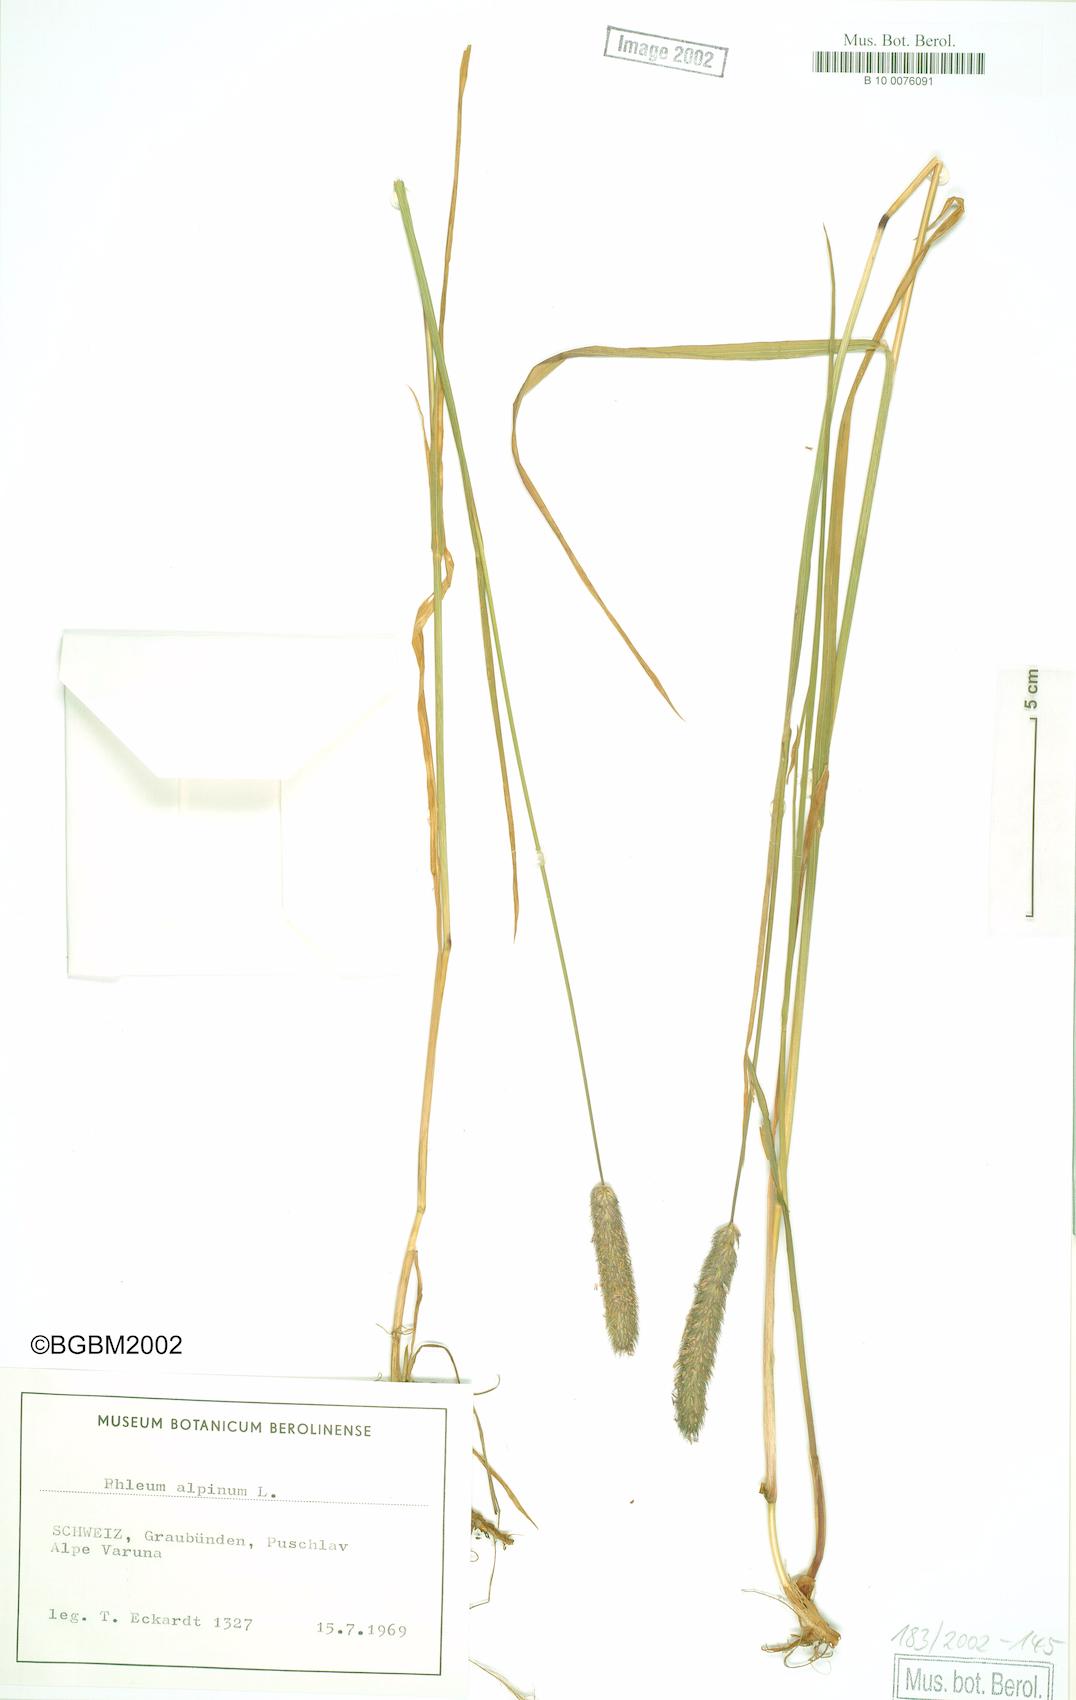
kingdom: Plantae
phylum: Tracheophyta
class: Liliopsida
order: Poales
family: Poaceae
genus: Phleum
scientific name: Phleum alpinum
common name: Alpine cat's-tail
